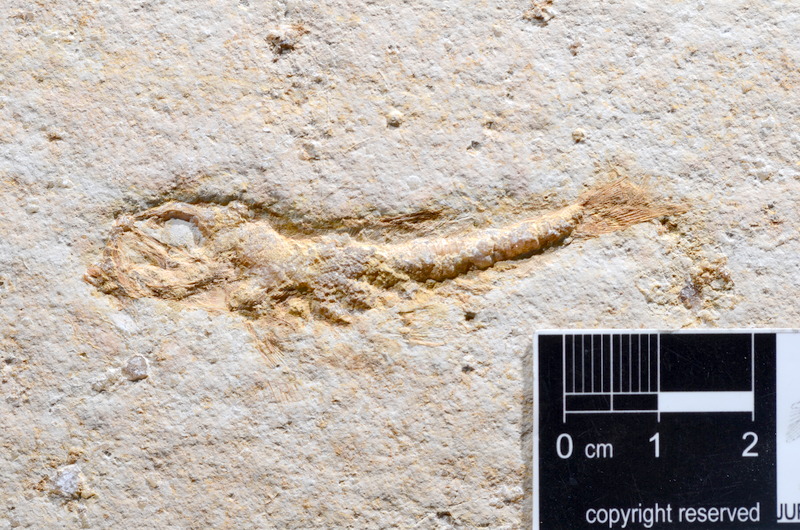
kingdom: Animalia
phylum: Chordata
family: Ascalaboidae
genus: Tharsis
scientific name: Tharsis dubius
